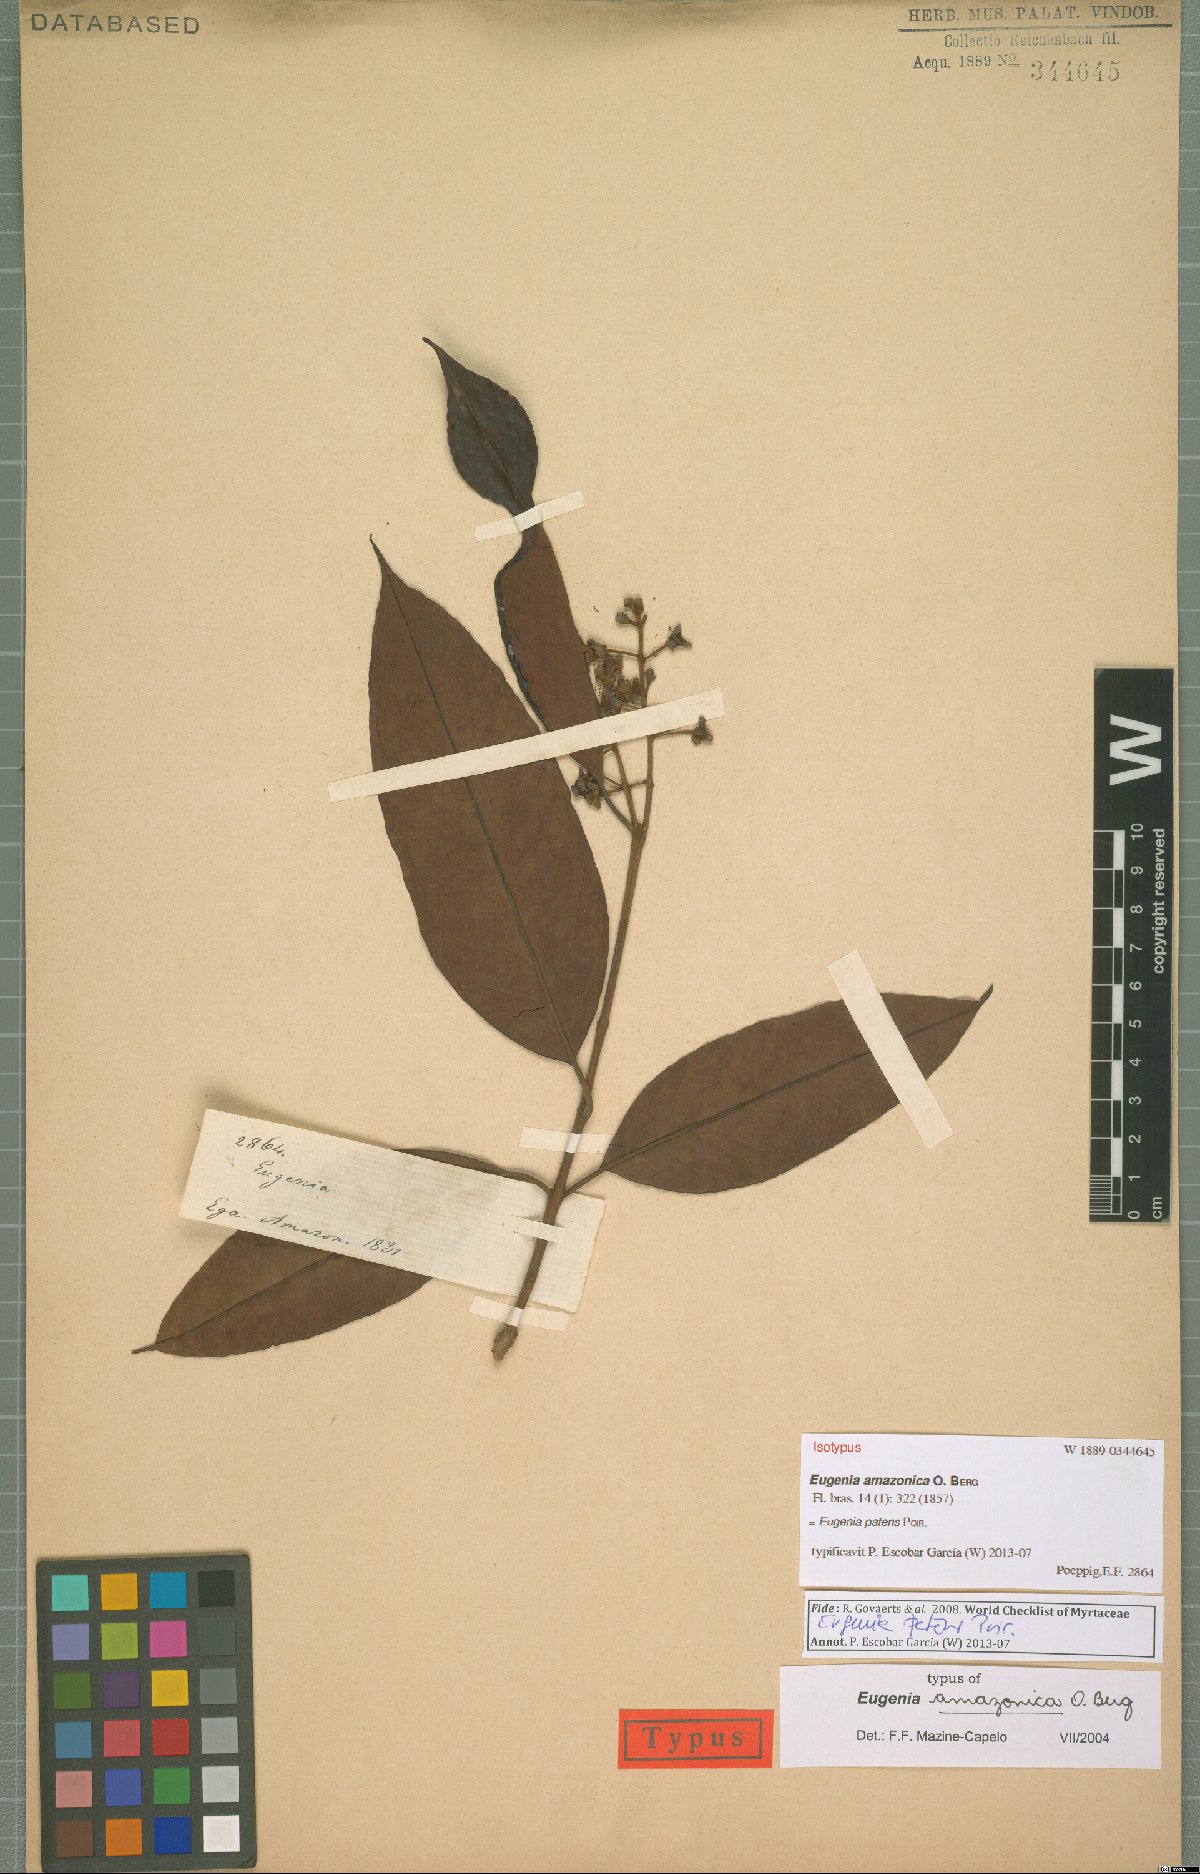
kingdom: Plantae
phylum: Tracheophyta
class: Magnoliopsida
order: Myrtales
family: Myrtaceae
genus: Eugenia
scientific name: Eugenia patens
